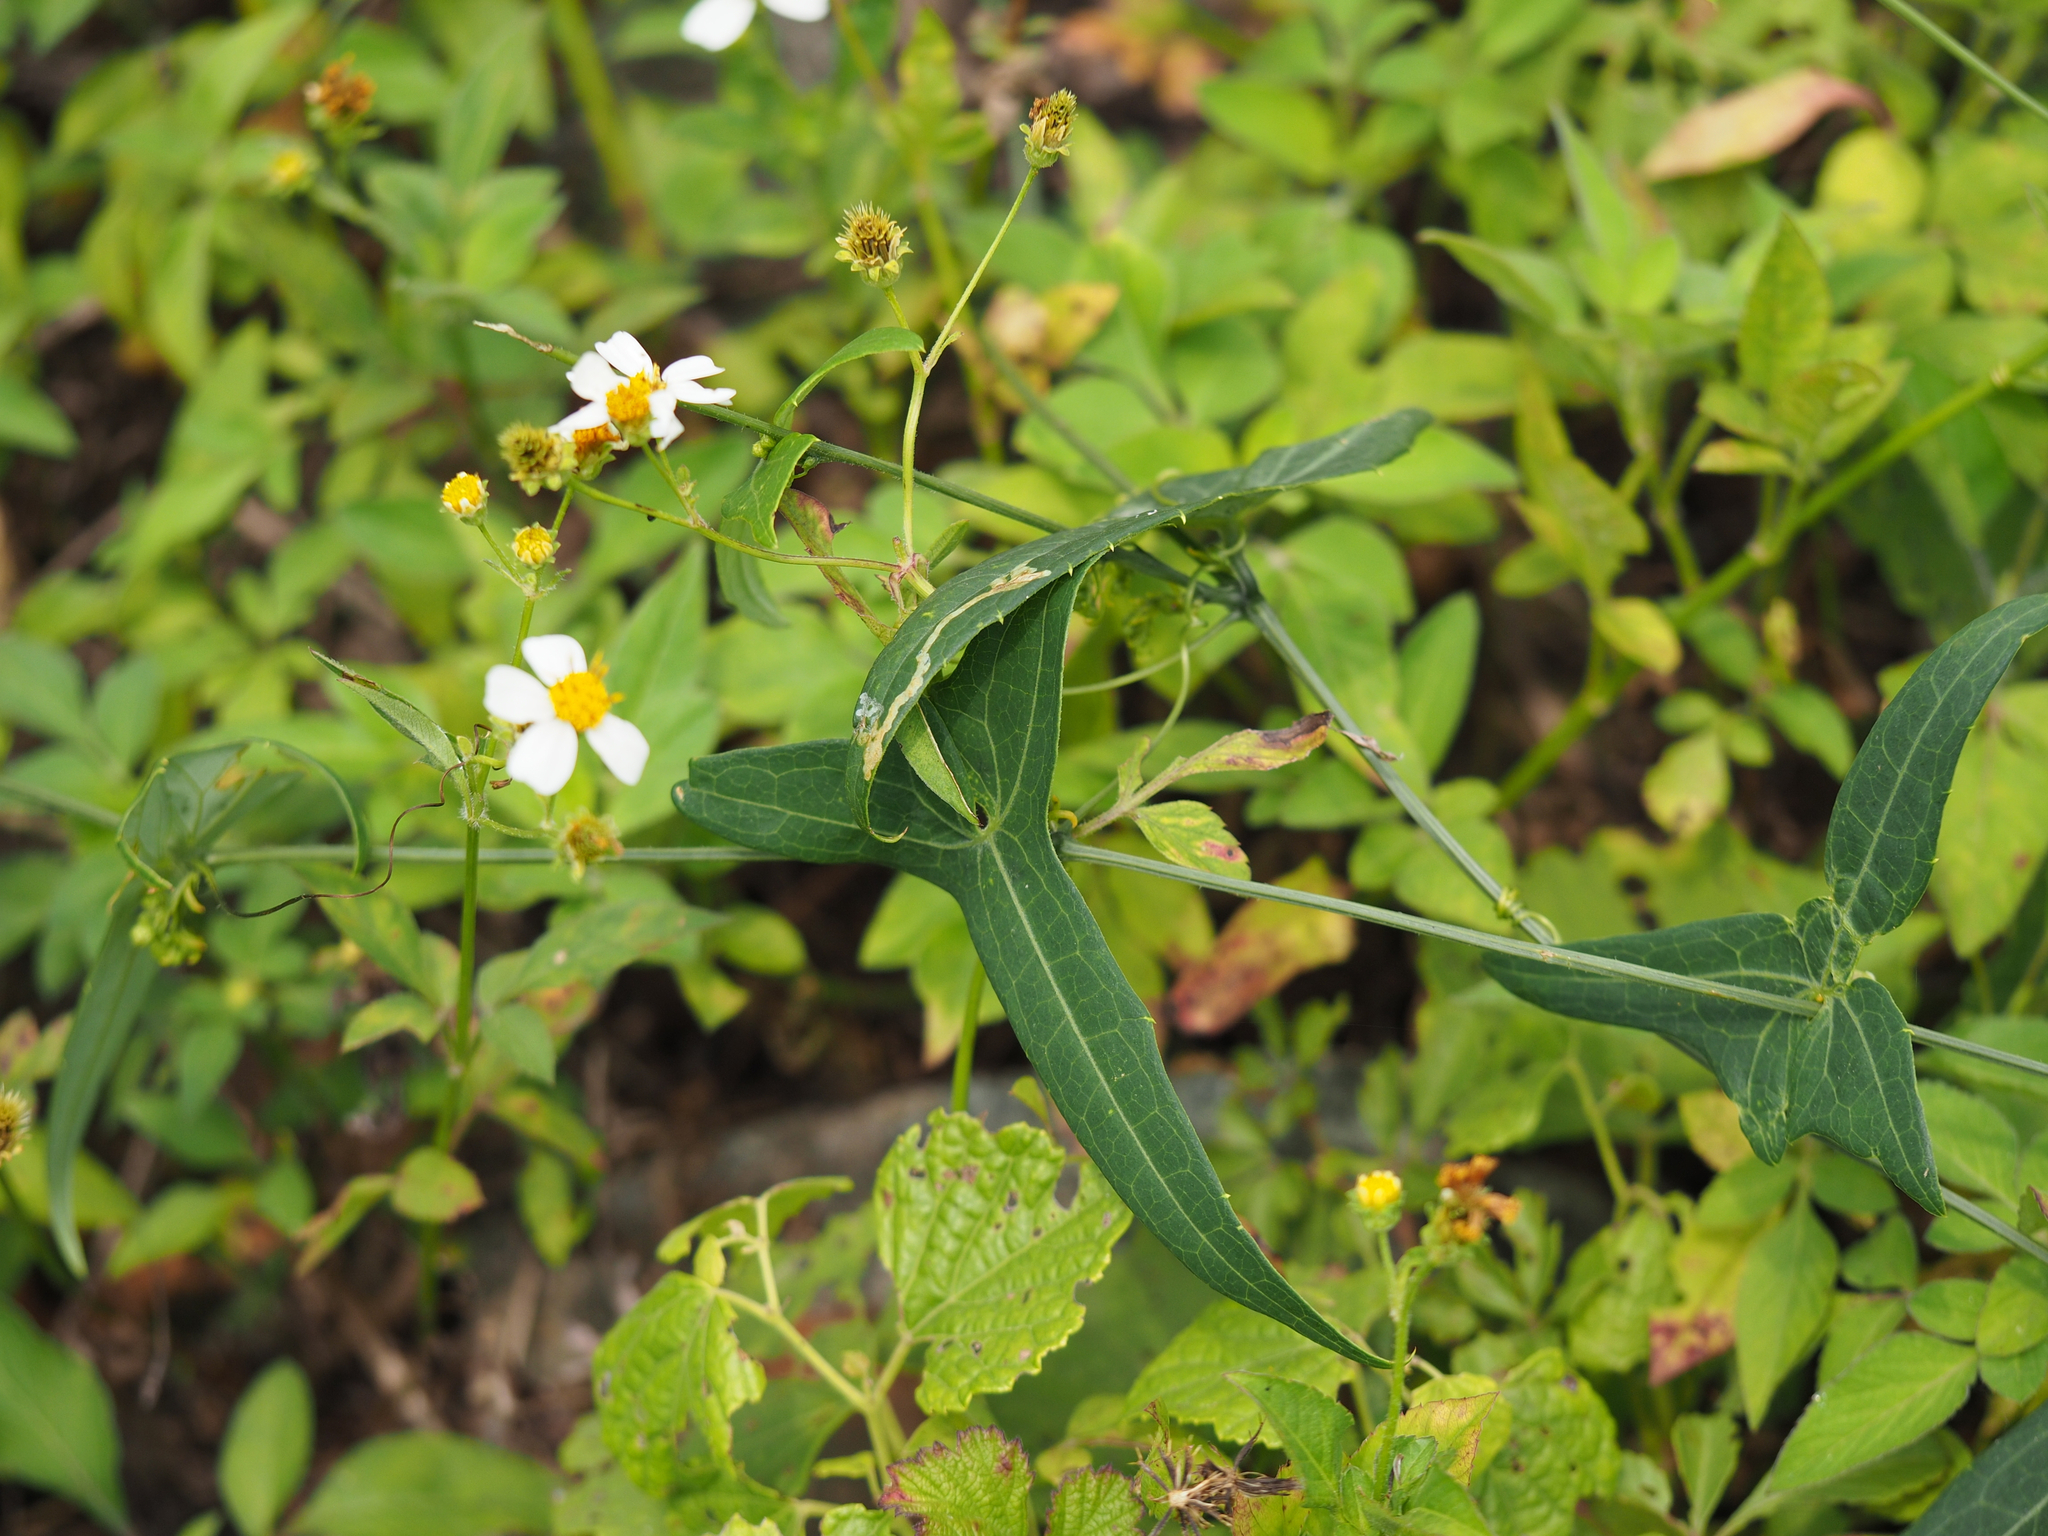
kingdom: Plantae
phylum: Tracheophyta
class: Magnoliopsida
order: Cucurbitales
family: Cucurbitaceae
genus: Solena
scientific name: Solena amplexicaulis
